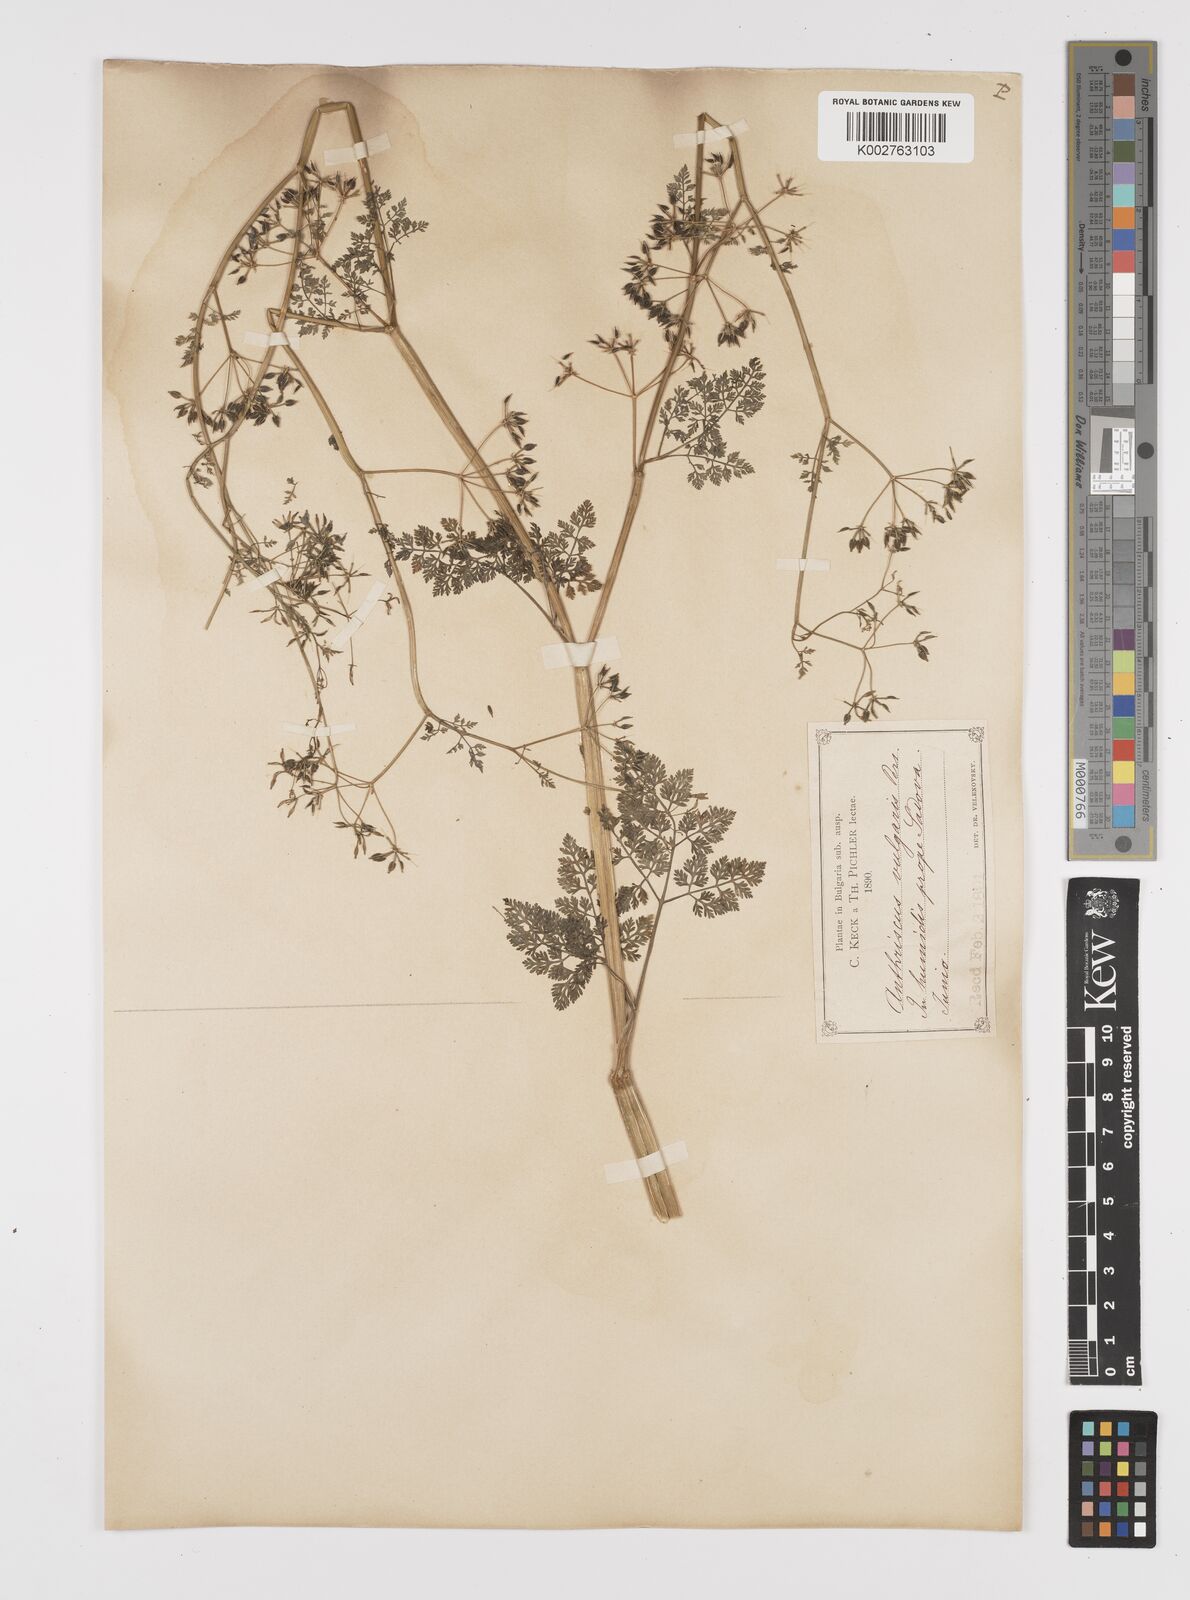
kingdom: Plantae
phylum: Tracheophyta
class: Magnoliopsida
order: Apiales
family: Apiaceae
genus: Anthriscus
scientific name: Anthriscus caucalis
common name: Bur chervil
